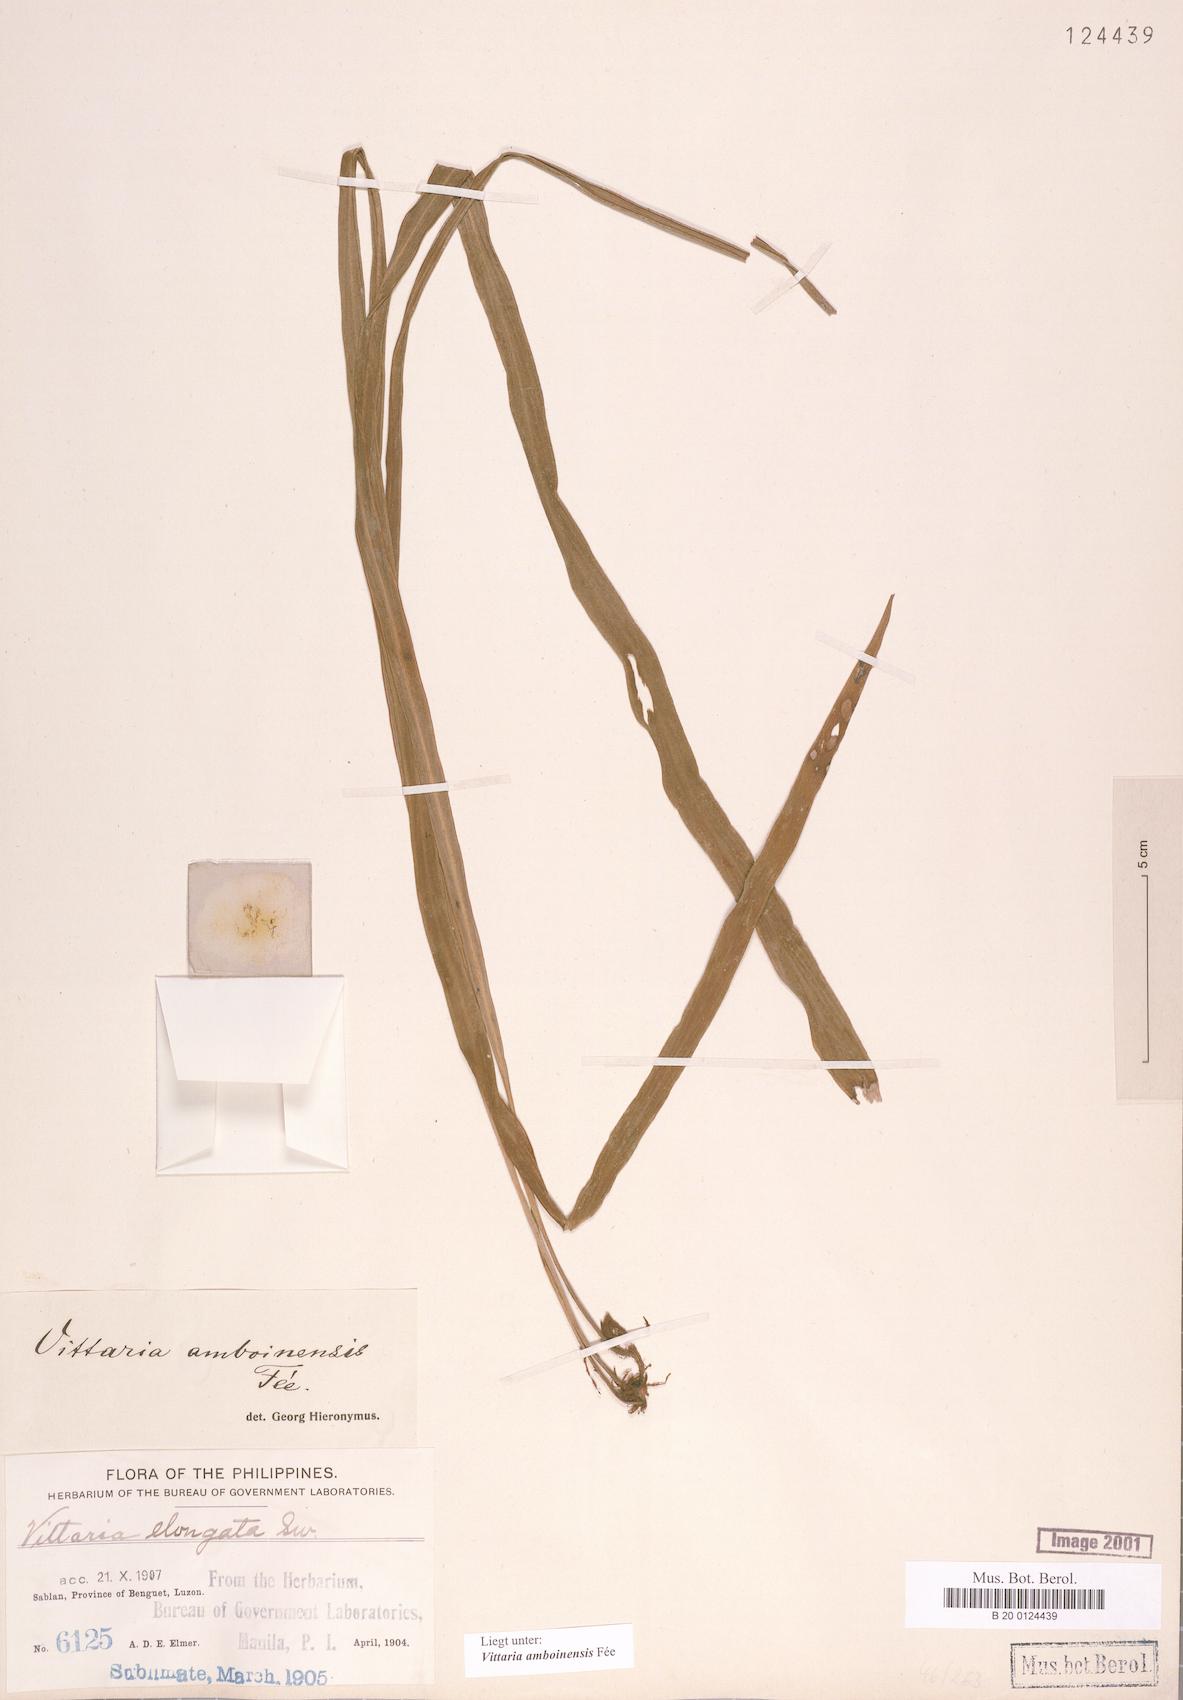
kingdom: Plantae
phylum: Tracheophyta
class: Polypodiopsida
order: Polypodiales
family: Pteridaceae
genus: Haplopteris
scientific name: Haplopteris amboinensis
